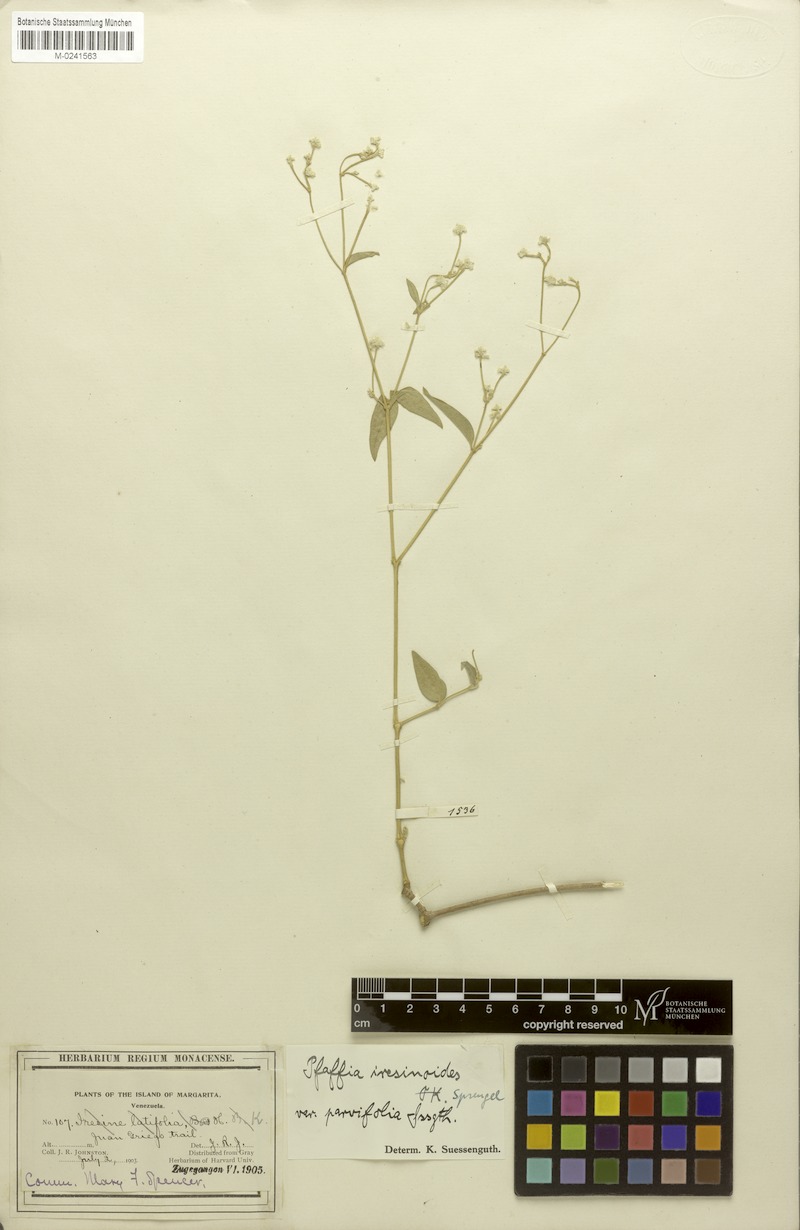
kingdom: Plantae
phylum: Tracheophyta
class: Magnoliopsida
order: Caryophyllales
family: Amaranthaceae
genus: Pfaffia
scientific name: Pfaffia iresinoides
